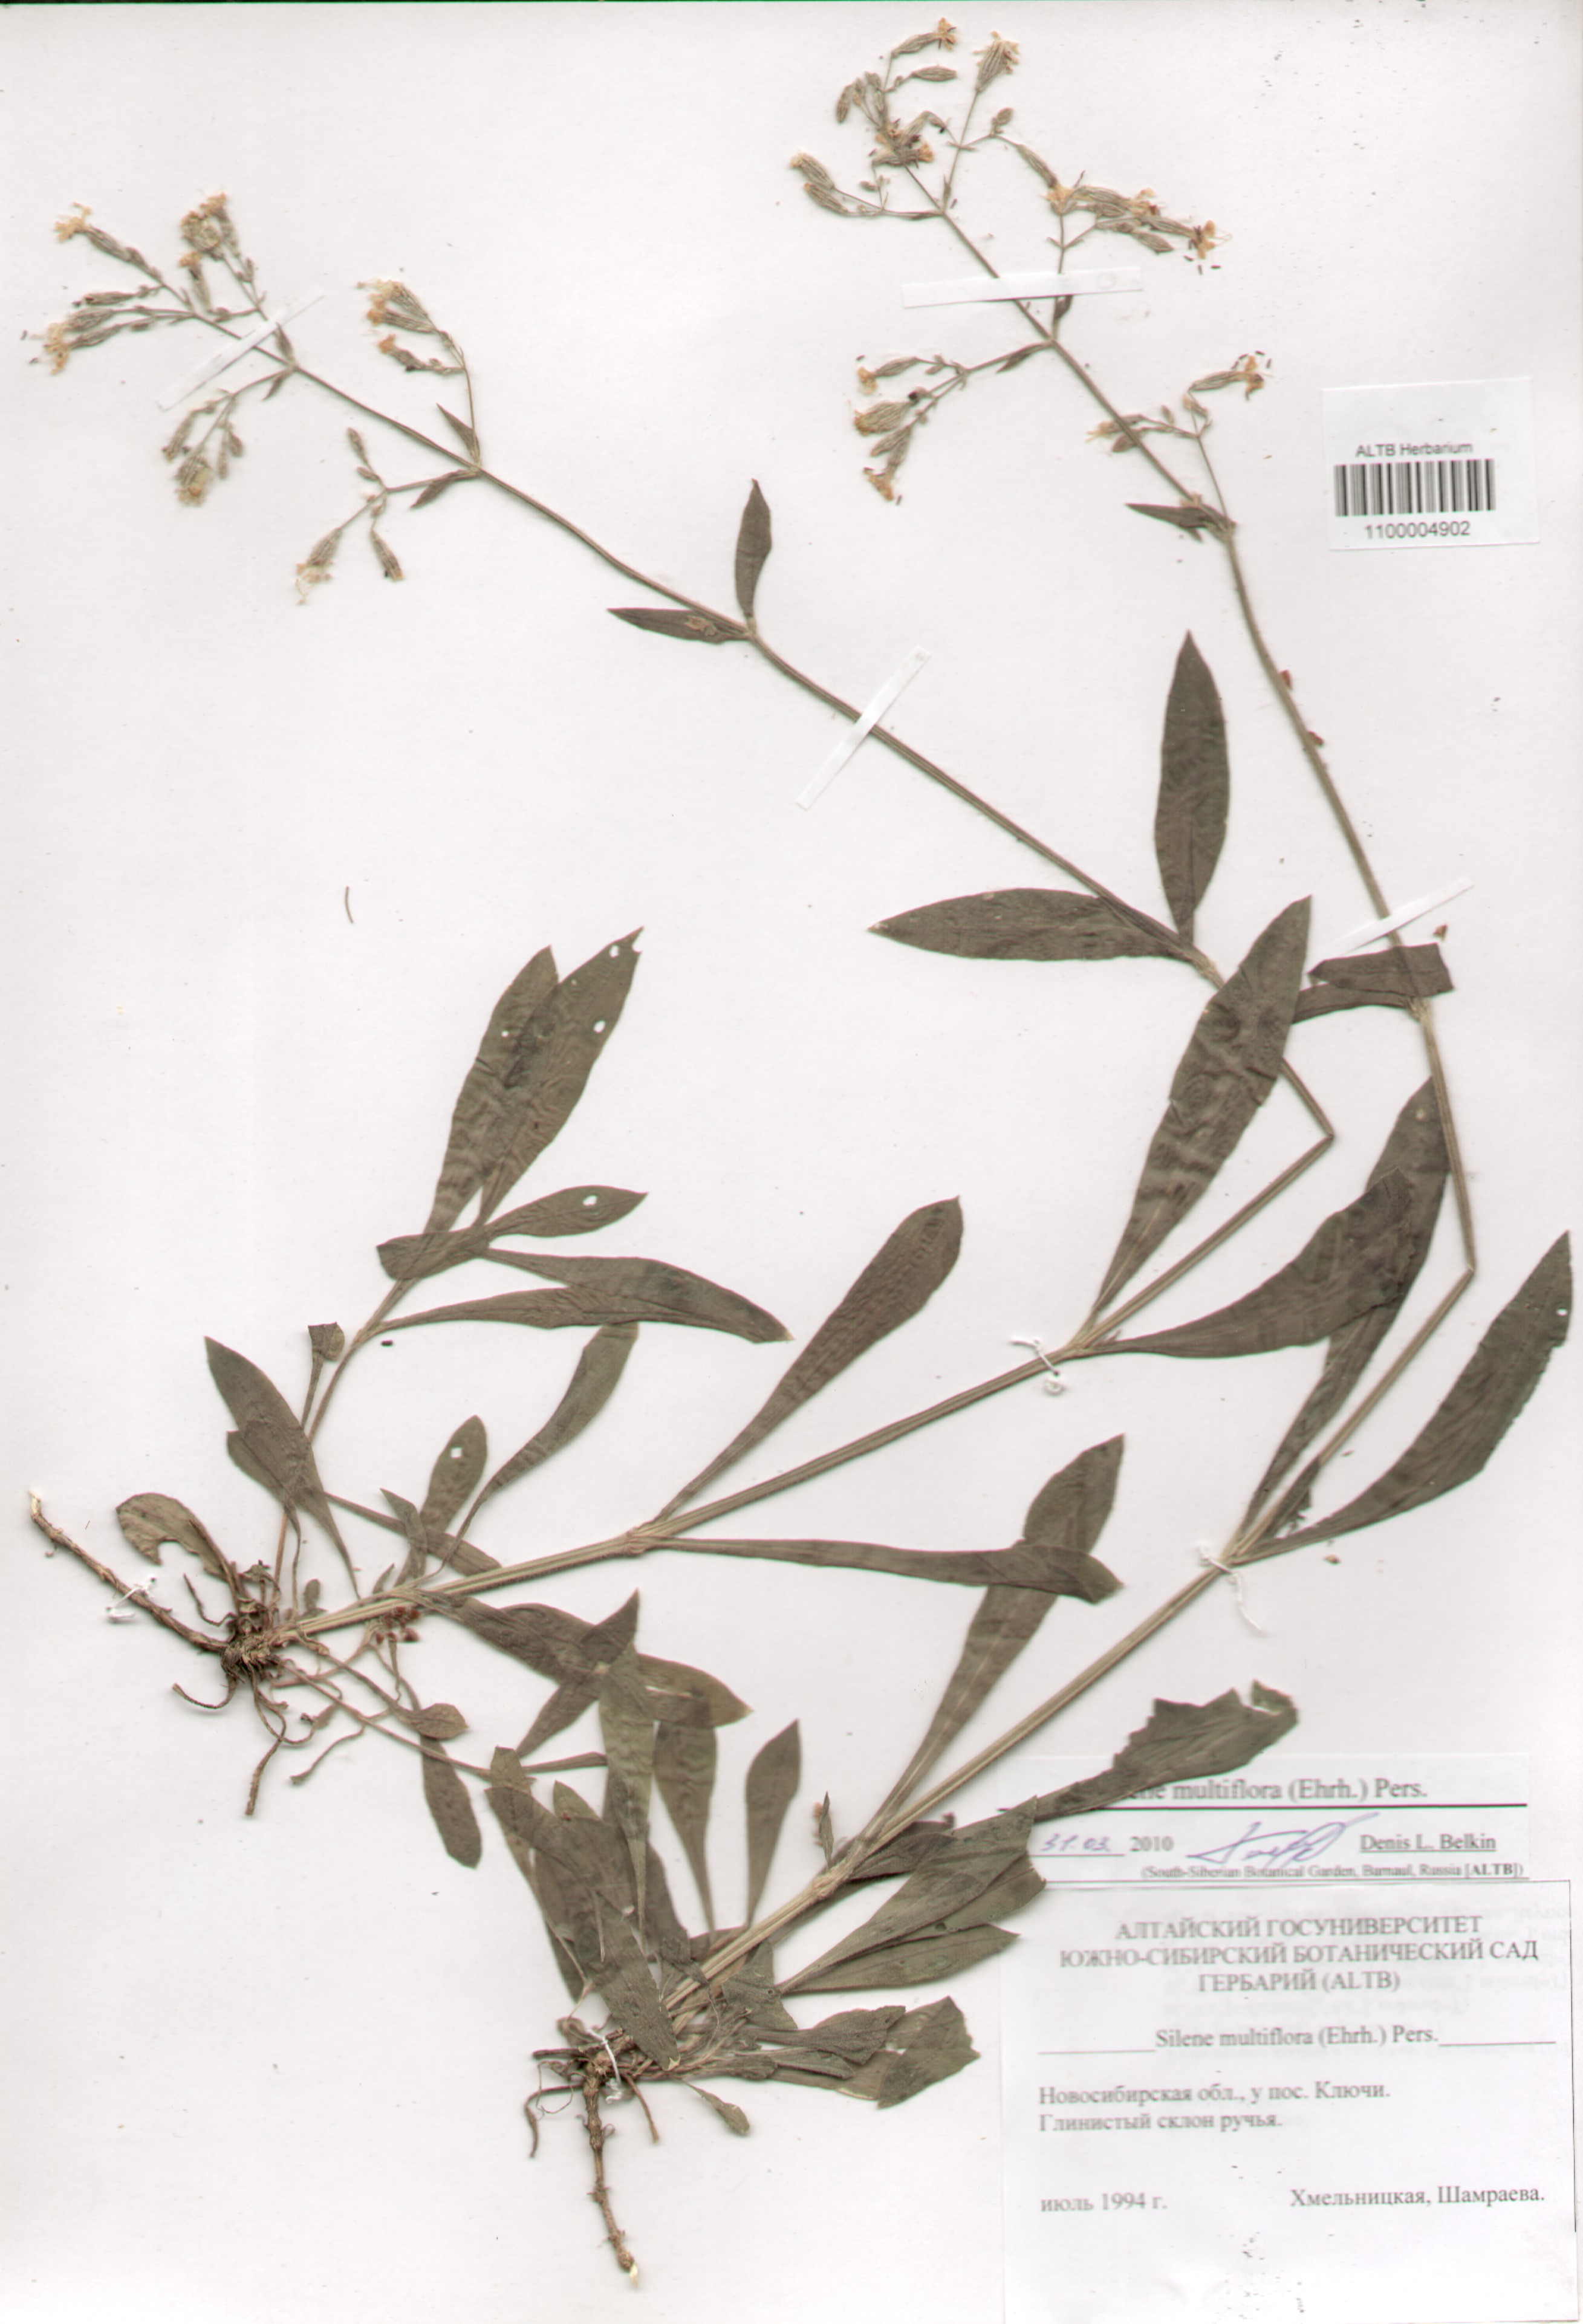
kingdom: Plantae
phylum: Tracheophyta
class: Magnoliopsida
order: Caryophyllales
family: Caryophyllaceae
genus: Silene
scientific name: Silene multiflora
